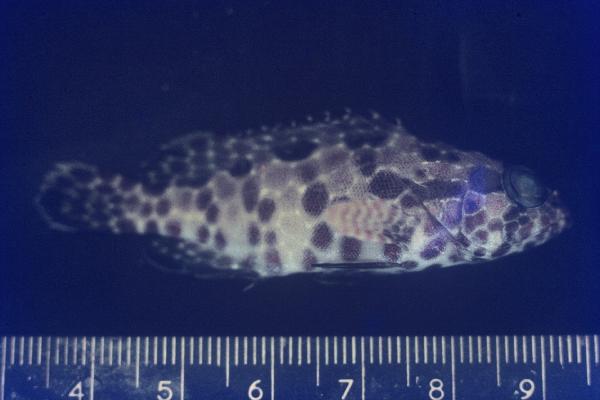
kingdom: Animalia
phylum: Chordata
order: Perciformes
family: Serranidae
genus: Epinephelus
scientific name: Epinephelus hexagonatus
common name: Hexagon grouper
